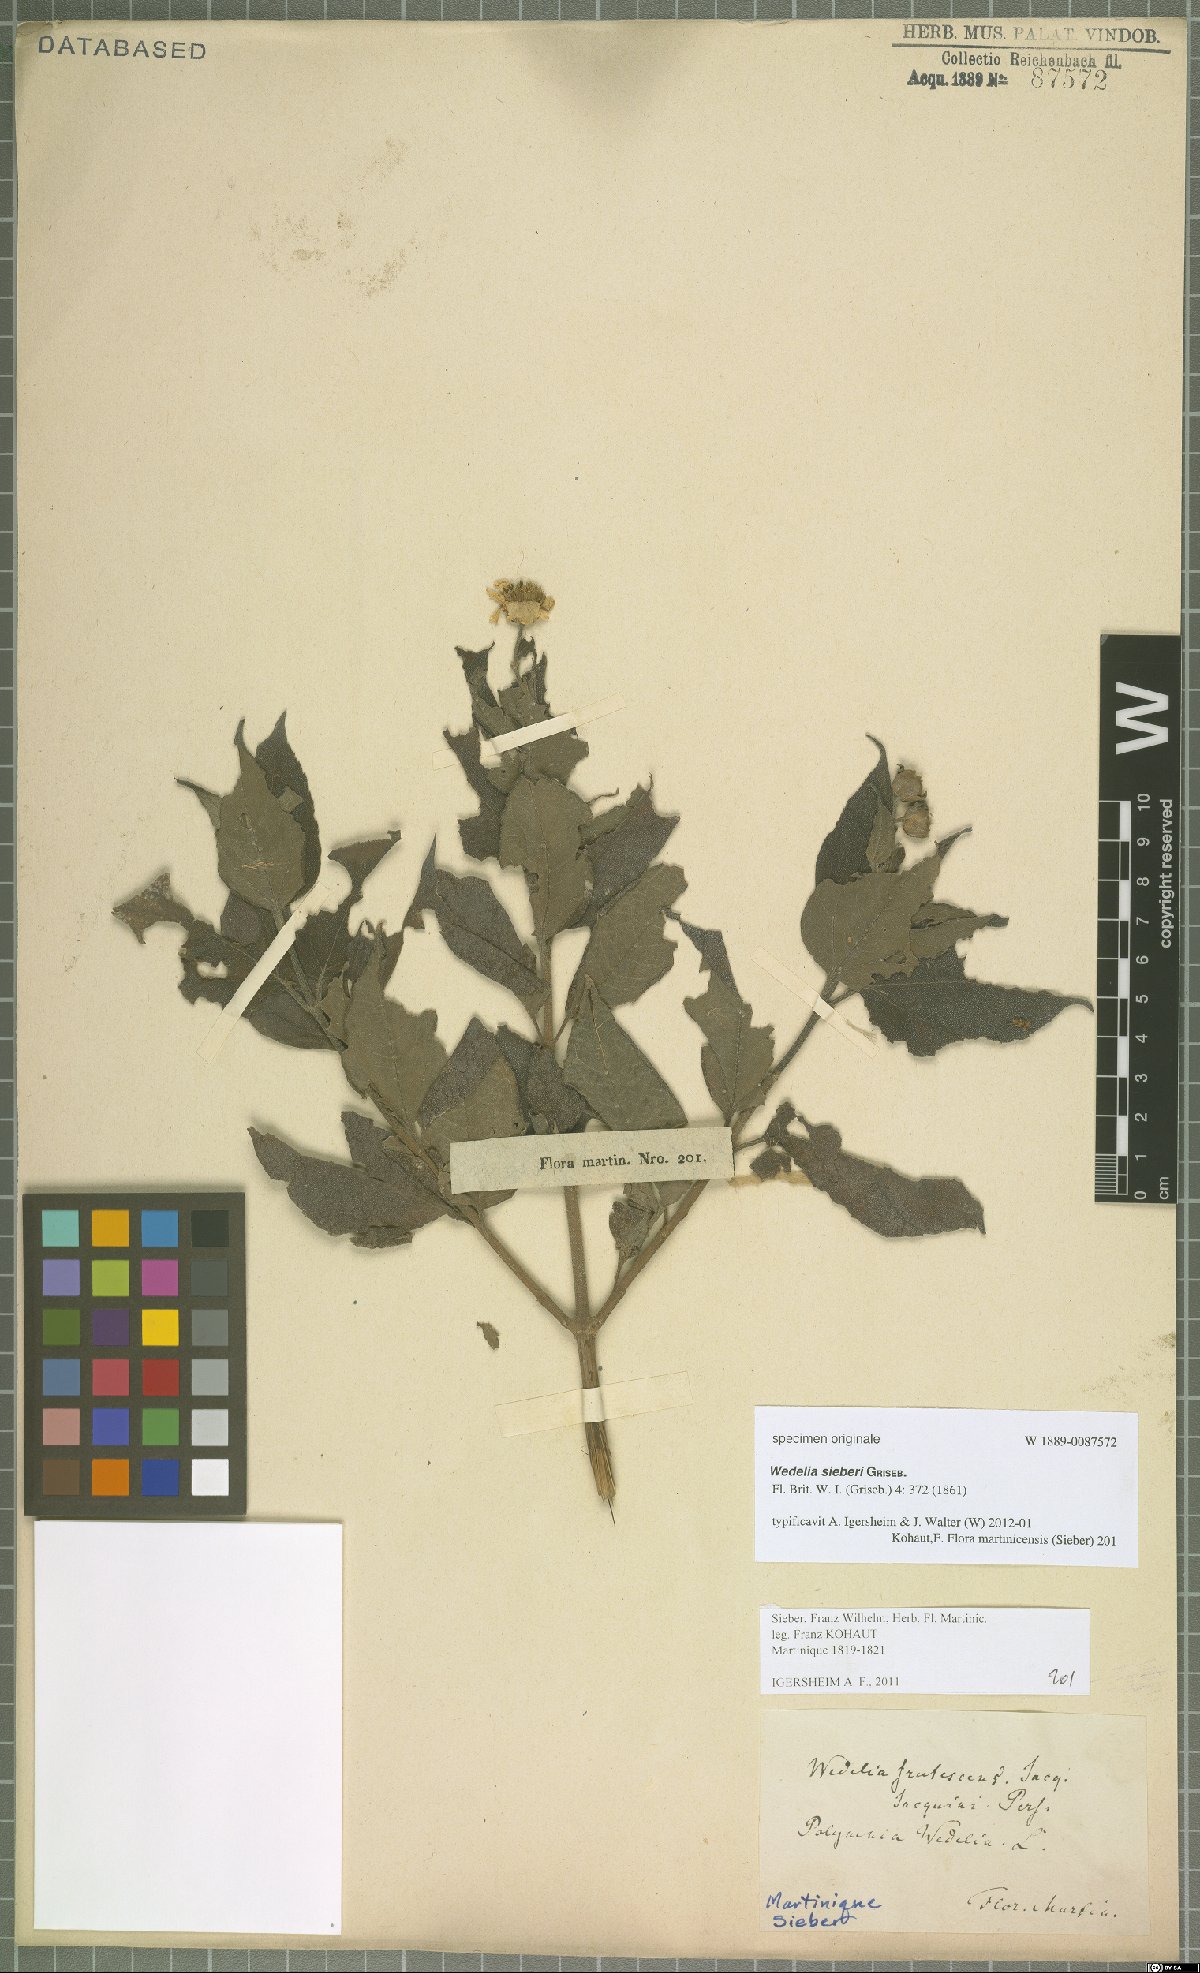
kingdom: Plantae
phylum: Tracheophyta
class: Magnoliopsida
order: Asterales
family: Asteraceae
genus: Wedelia
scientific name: Wedelia calycina
